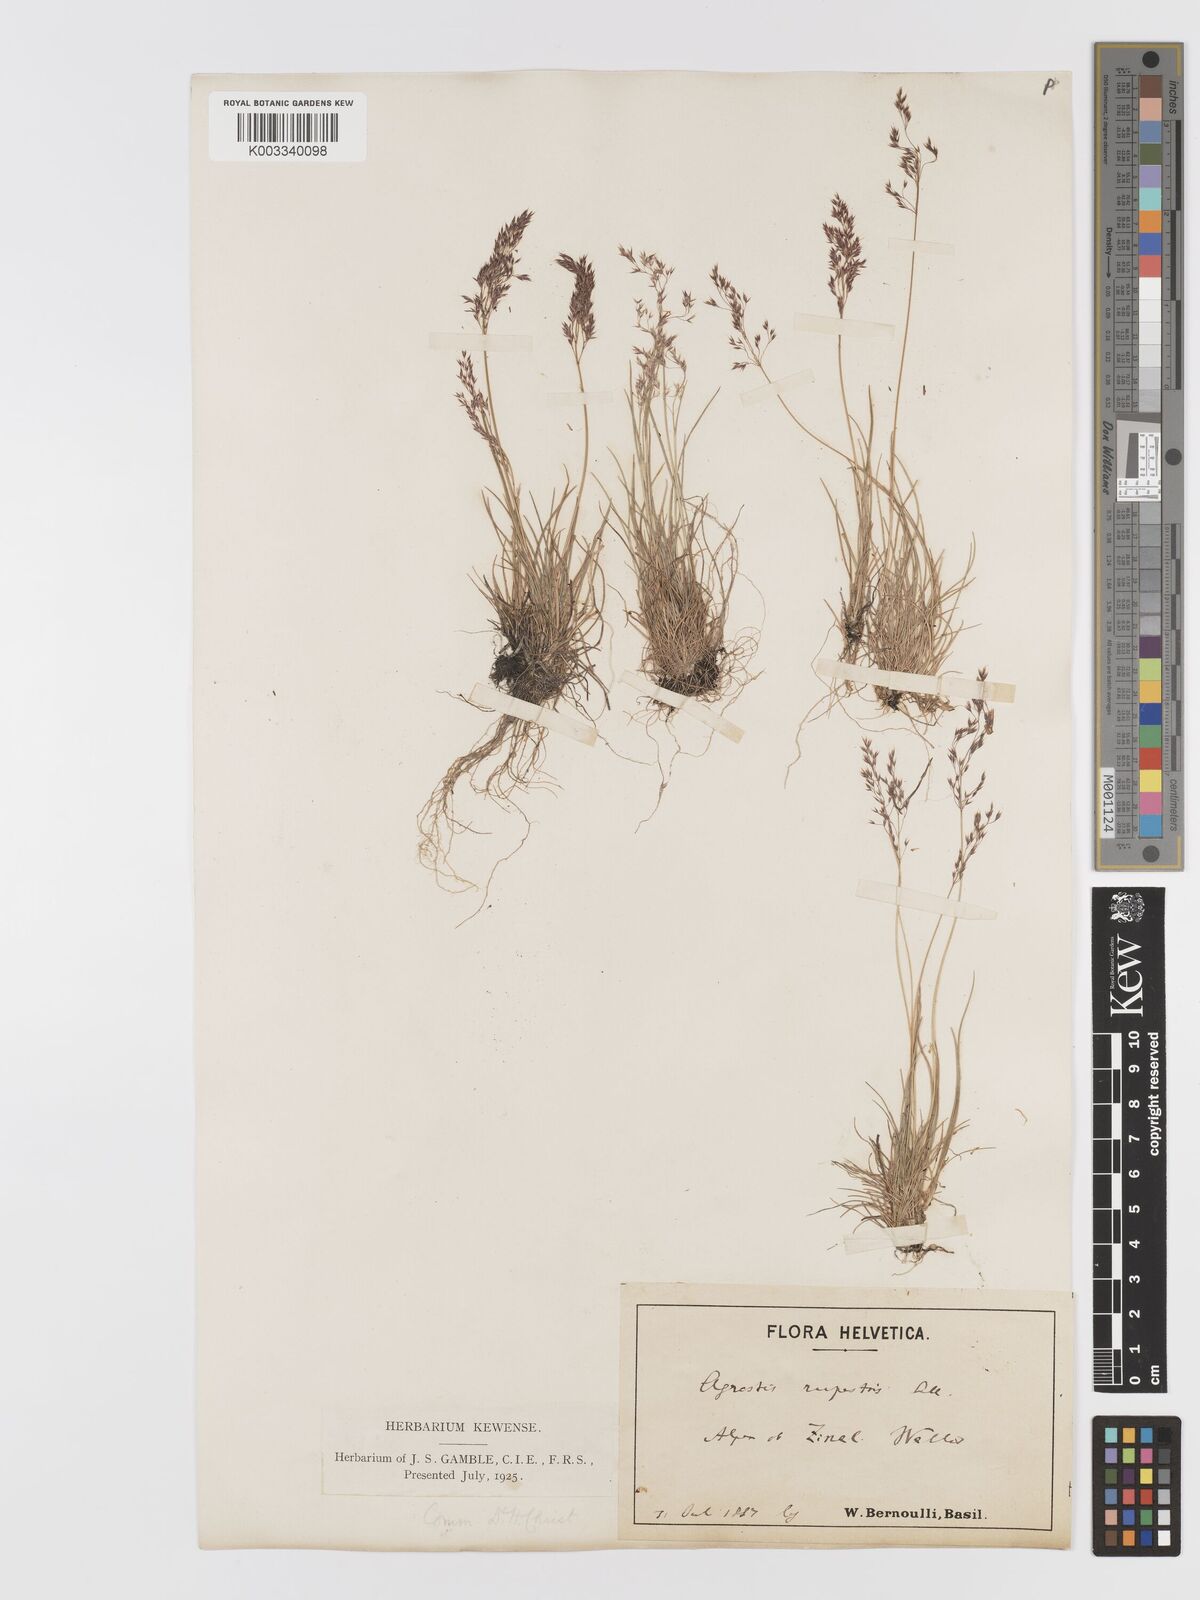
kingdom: Plantae
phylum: Tracheophyta
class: Liliopsida
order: Poales
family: Poaceae
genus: Agrostis
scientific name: Agrostis rupestris
